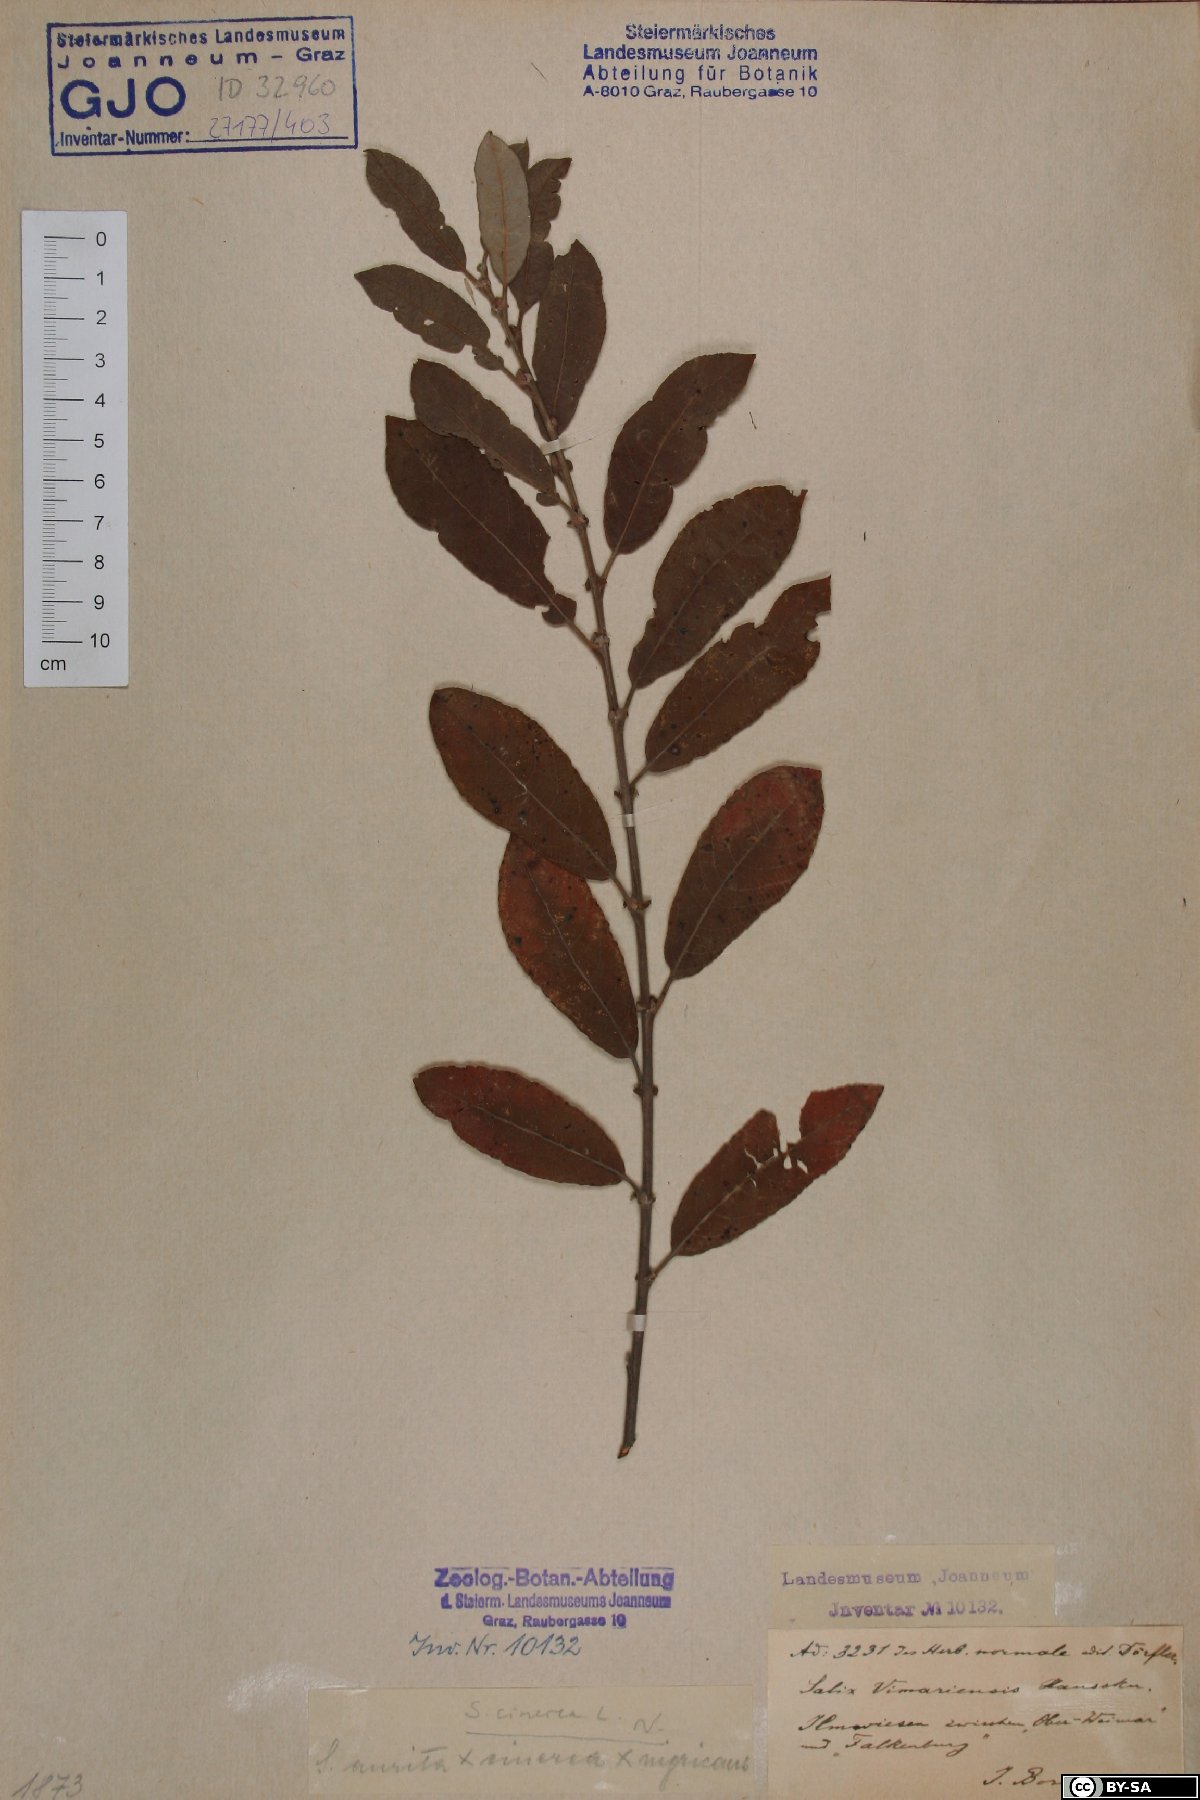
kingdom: Plantae
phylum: Tracheophyta
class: Magnoliopsida
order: Malpighiales
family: Salicaceae
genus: Salix
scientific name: Salix cinerea
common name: Common sallow
